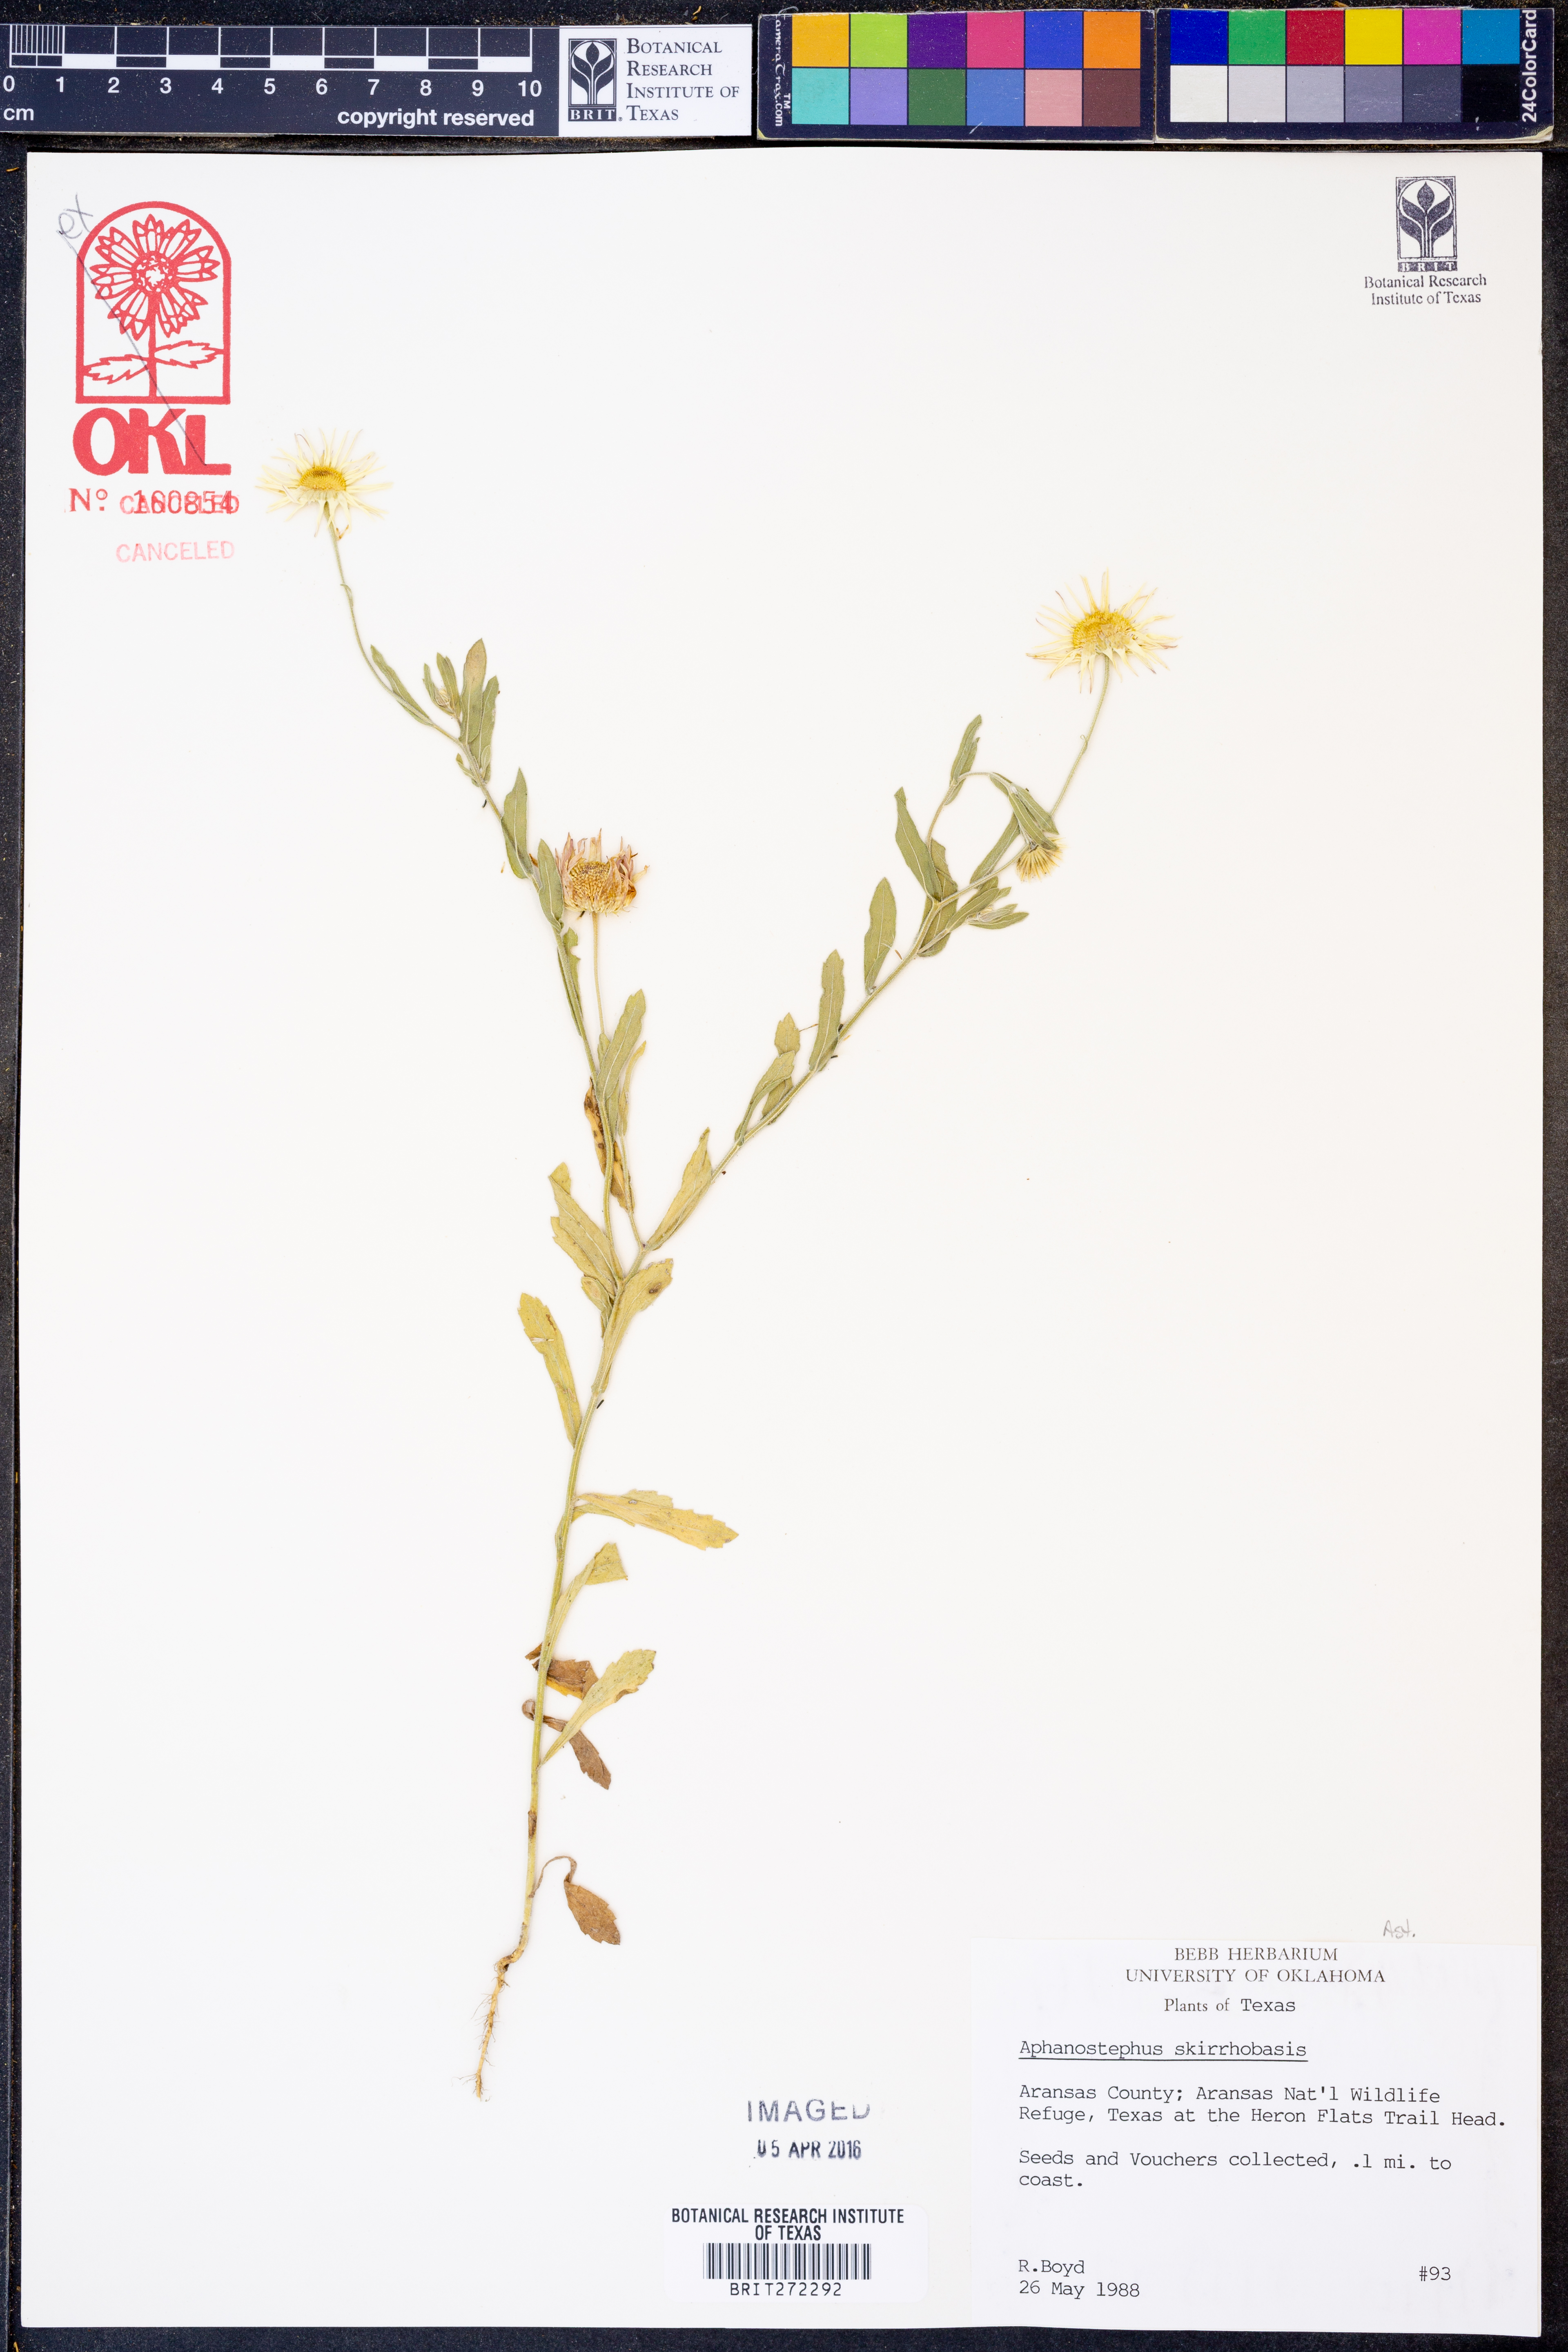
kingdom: Plantae
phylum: Tracheophyta
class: Magnoliopsida
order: Asterales
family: Asteraceae
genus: Aphanostephus
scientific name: Aphanostephus skirrhobasis
